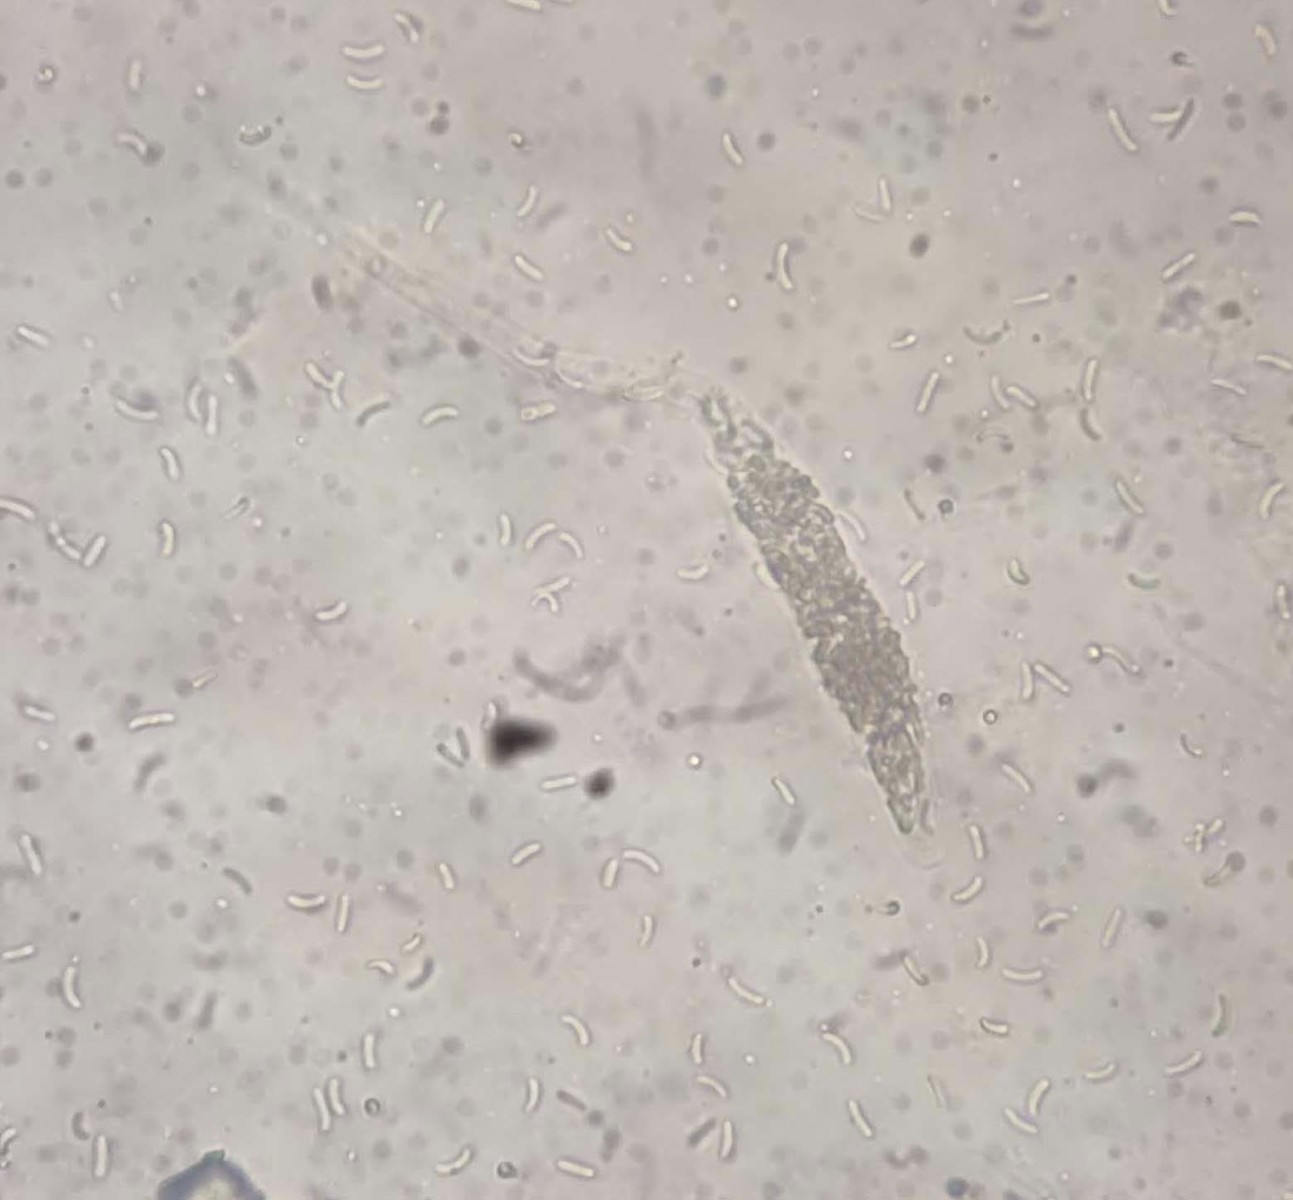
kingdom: Fungi
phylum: Ascomycota
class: Sordariomycetes
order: Xylariales
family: Diatrypaceae
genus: Diatrypella
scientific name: Diatrypella favacea
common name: klemt kulskorpe
